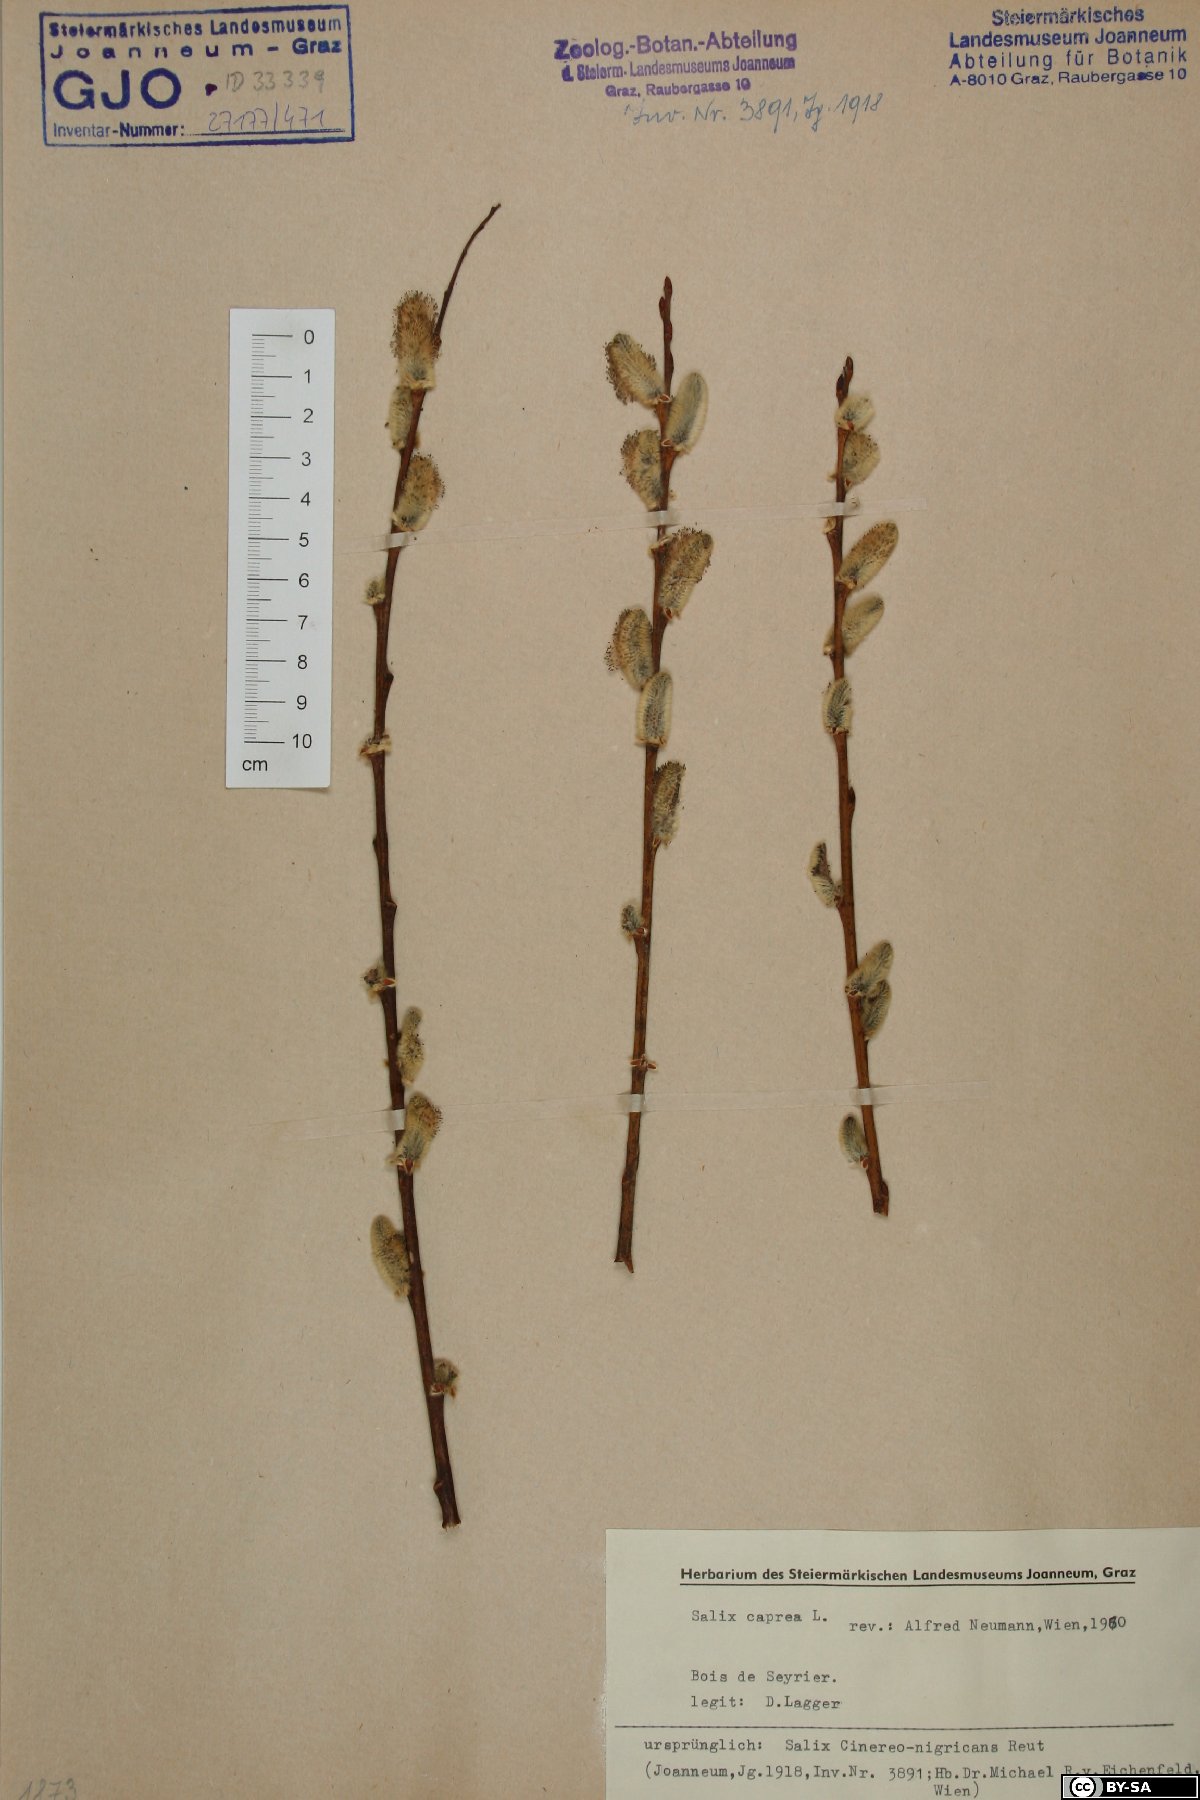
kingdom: Plantae
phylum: Tracheophyta
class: Magnoliopsida
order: Malpighiales
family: Salicaceae
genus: Salix
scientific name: Salix caprea
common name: Goat willow
